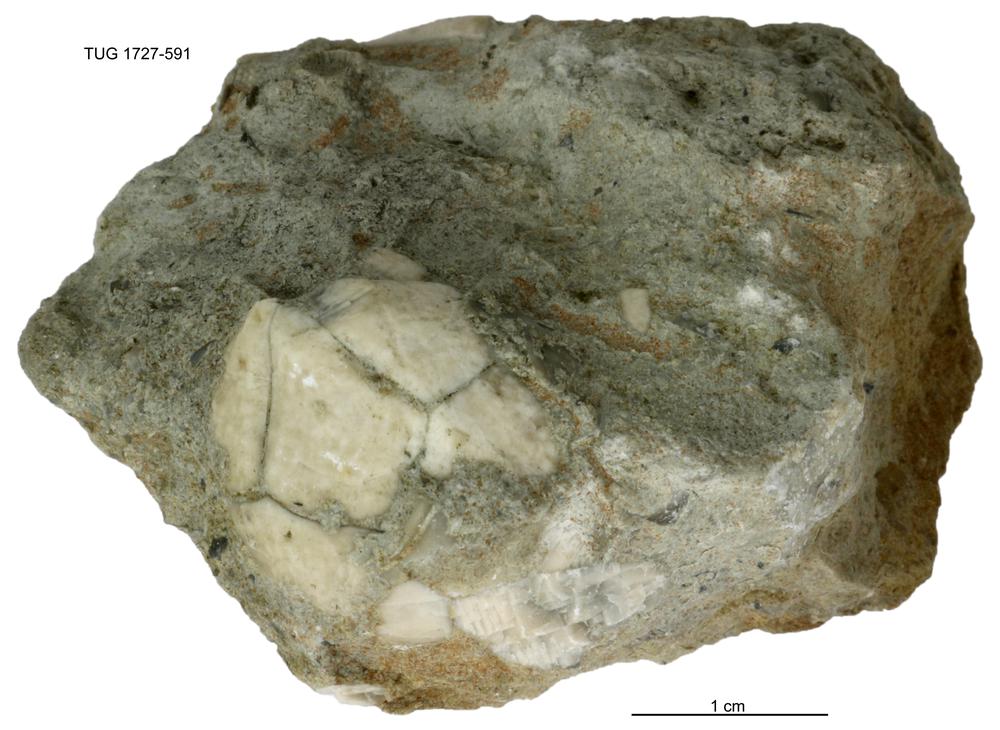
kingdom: Animalia
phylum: Echinodermata
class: Crinoidea
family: Hybocrinidae
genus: Hoplocrinus
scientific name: Hoplocrinus
